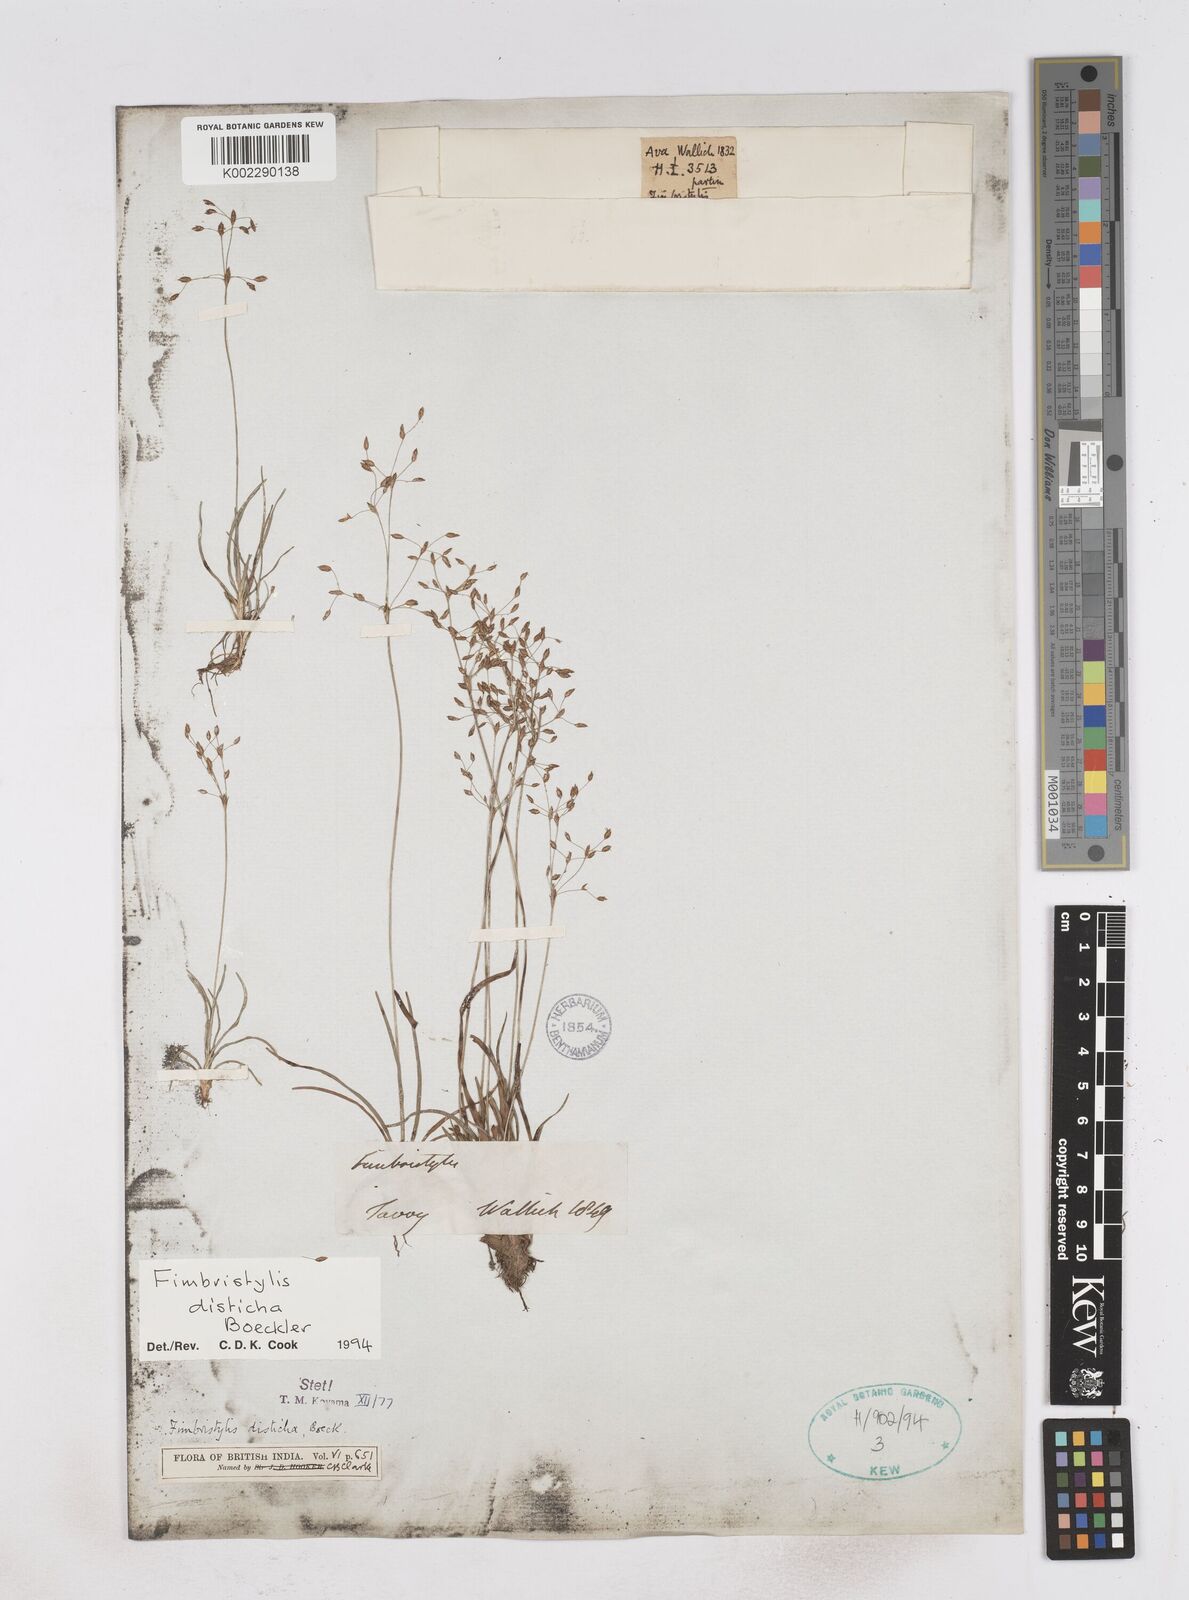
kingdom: Plantae
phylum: Tracheophyta
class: Liliopsida
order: Poales
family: Cyperaceae
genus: Fimbristylis
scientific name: Fimbristylis disticha
